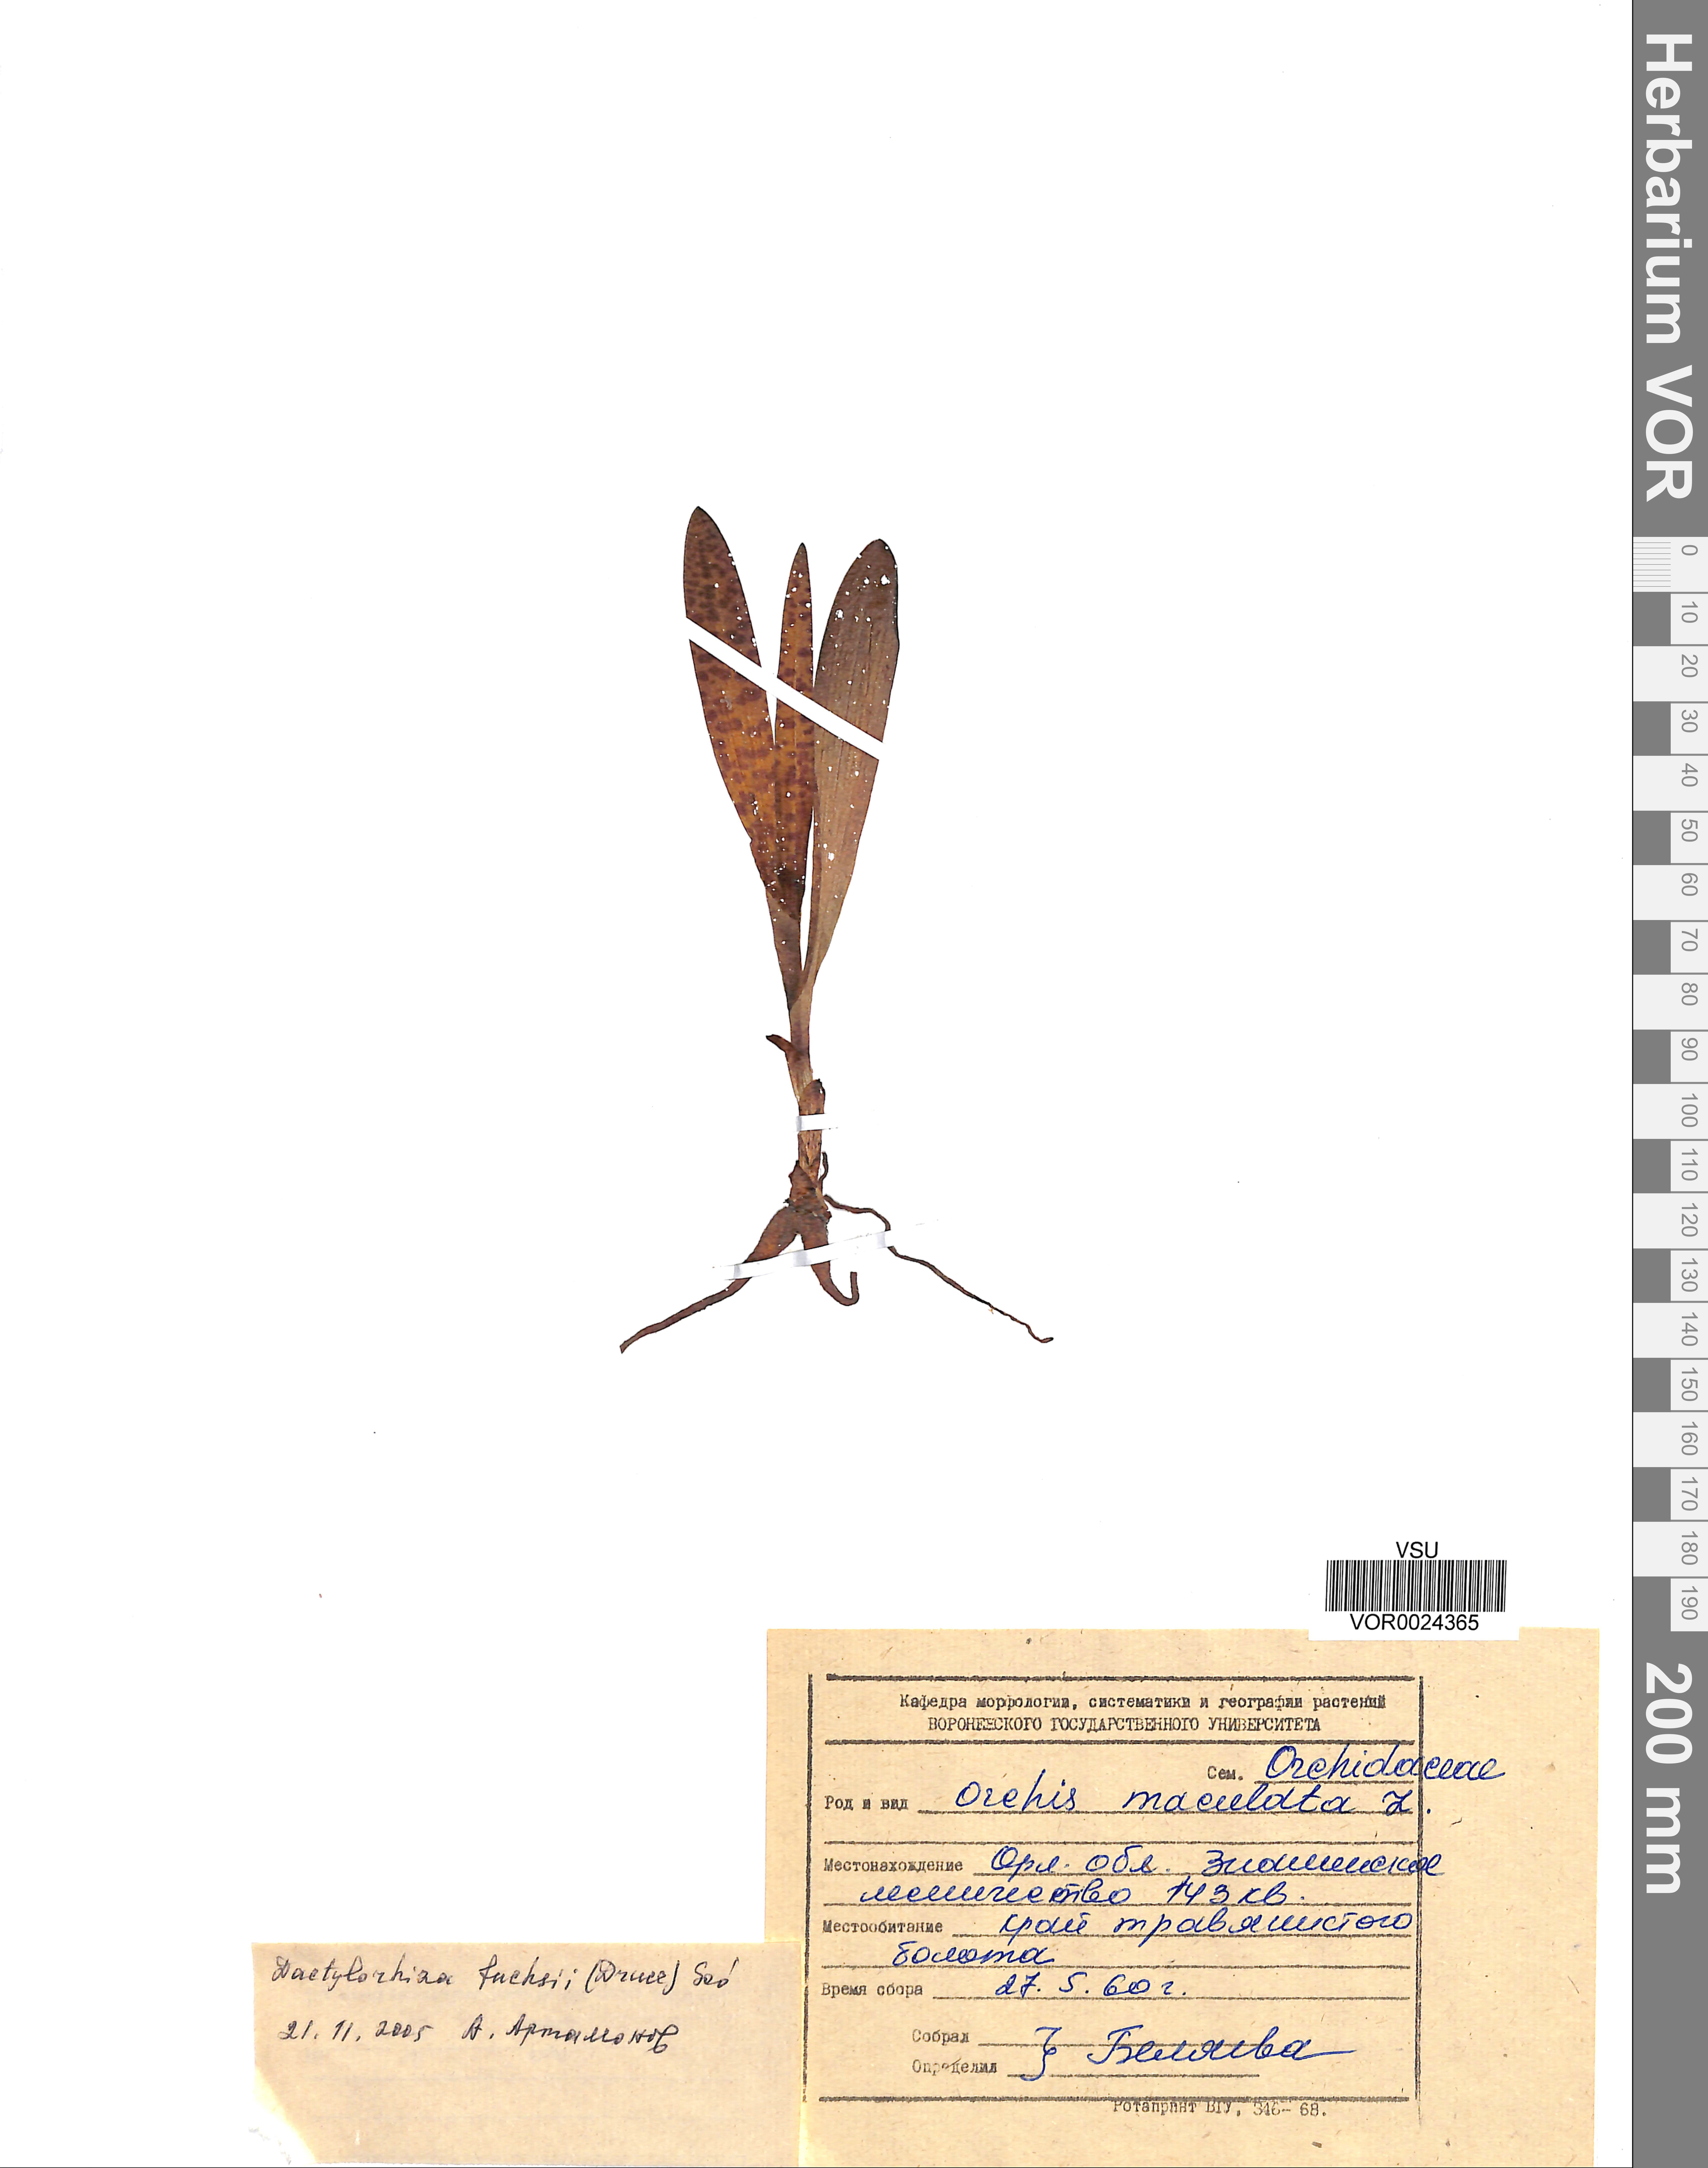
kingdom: Plantae
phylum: Tracheophyta
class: Liliopsida
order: Asparagales
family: Orchidaceae
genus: Dactylorhiza
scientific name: Dactylorhiza maculata
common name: Heath spotted-orchid
